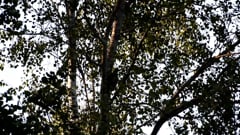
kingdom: Animalia
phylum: Chordata
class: Aves
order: Piciformes
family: Picidae
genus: Dryocopus
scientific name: Dryocopus martius
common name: Black woodpecker
